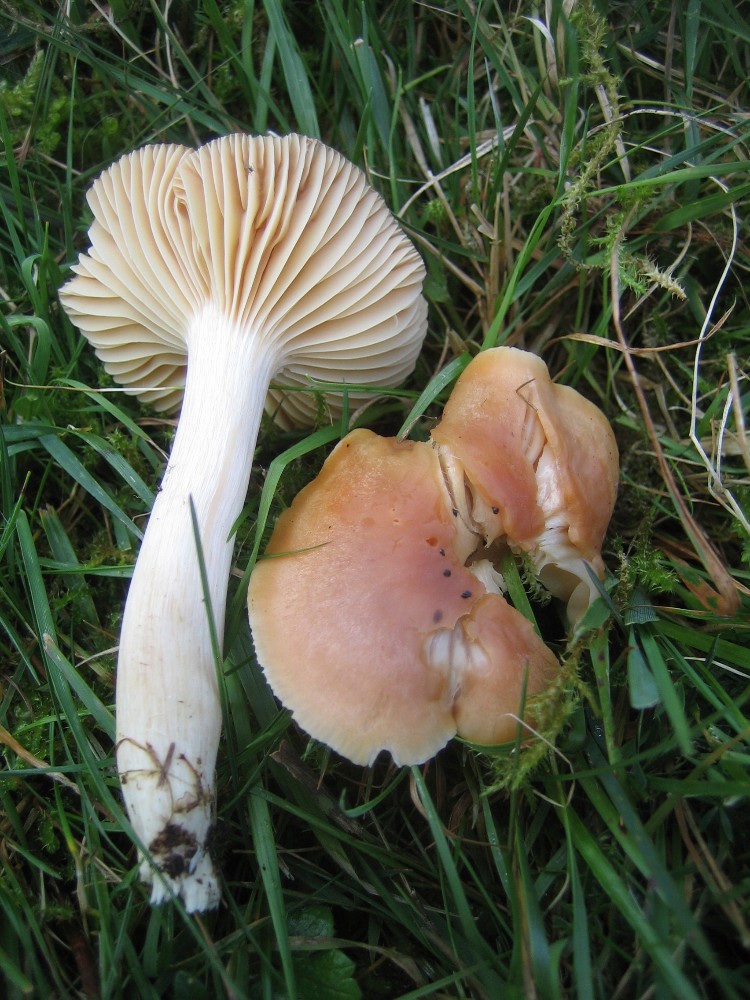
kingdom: Fungi
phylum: Basidiomycota
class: Agaricomycetes
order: Agaricales
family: Hygrophoraceae
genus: Cuphophyllus
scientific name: Cuphophyllus pratensis
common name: eng-vokshat
